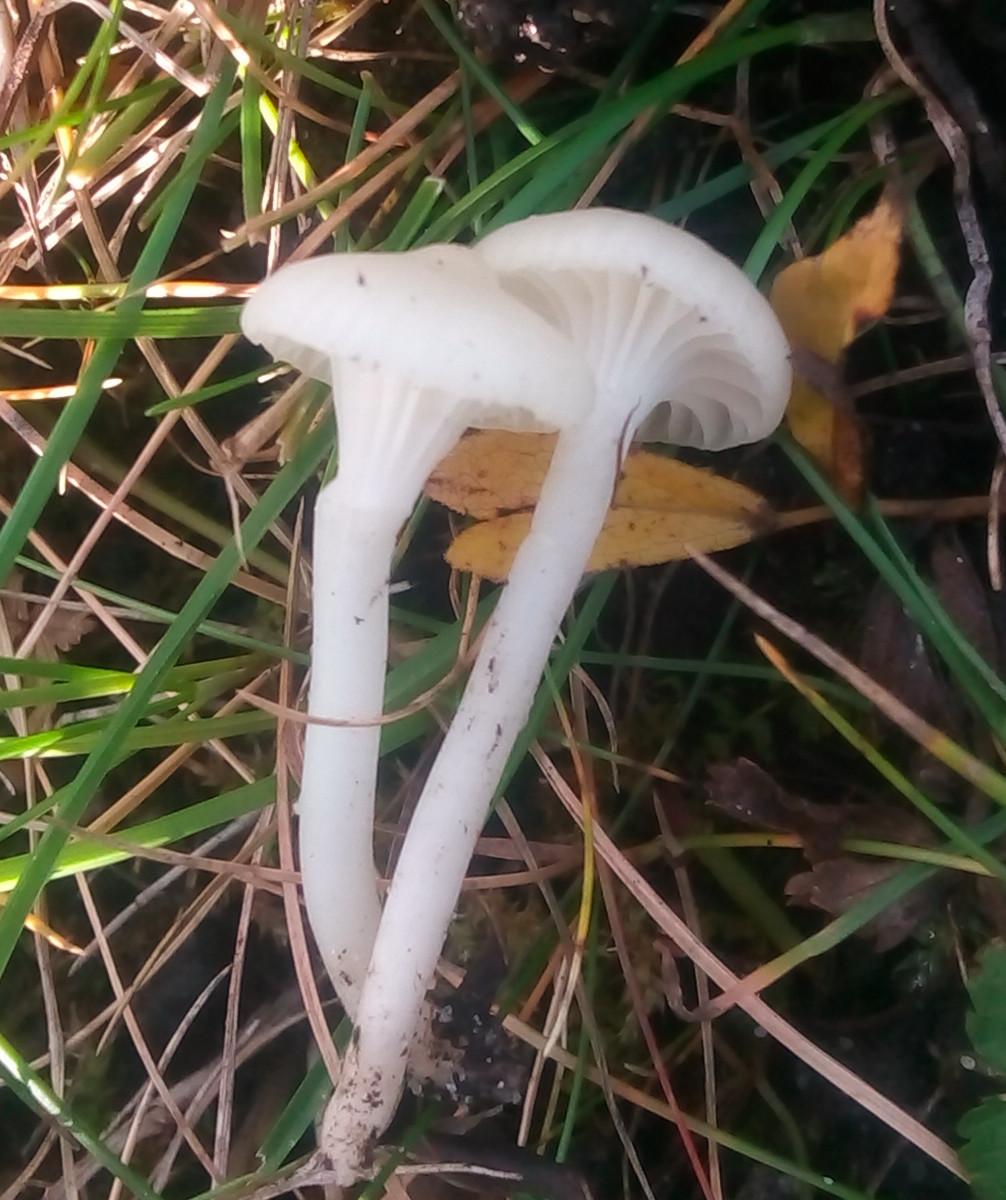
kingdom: Fungi
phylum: Basidiomycota
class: Agaricomycetes
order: Agaricales
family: Hygrophoraceae
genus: Cuphophyllus
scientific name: Cuphophyllus virgineus
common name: snehvid vokshat
